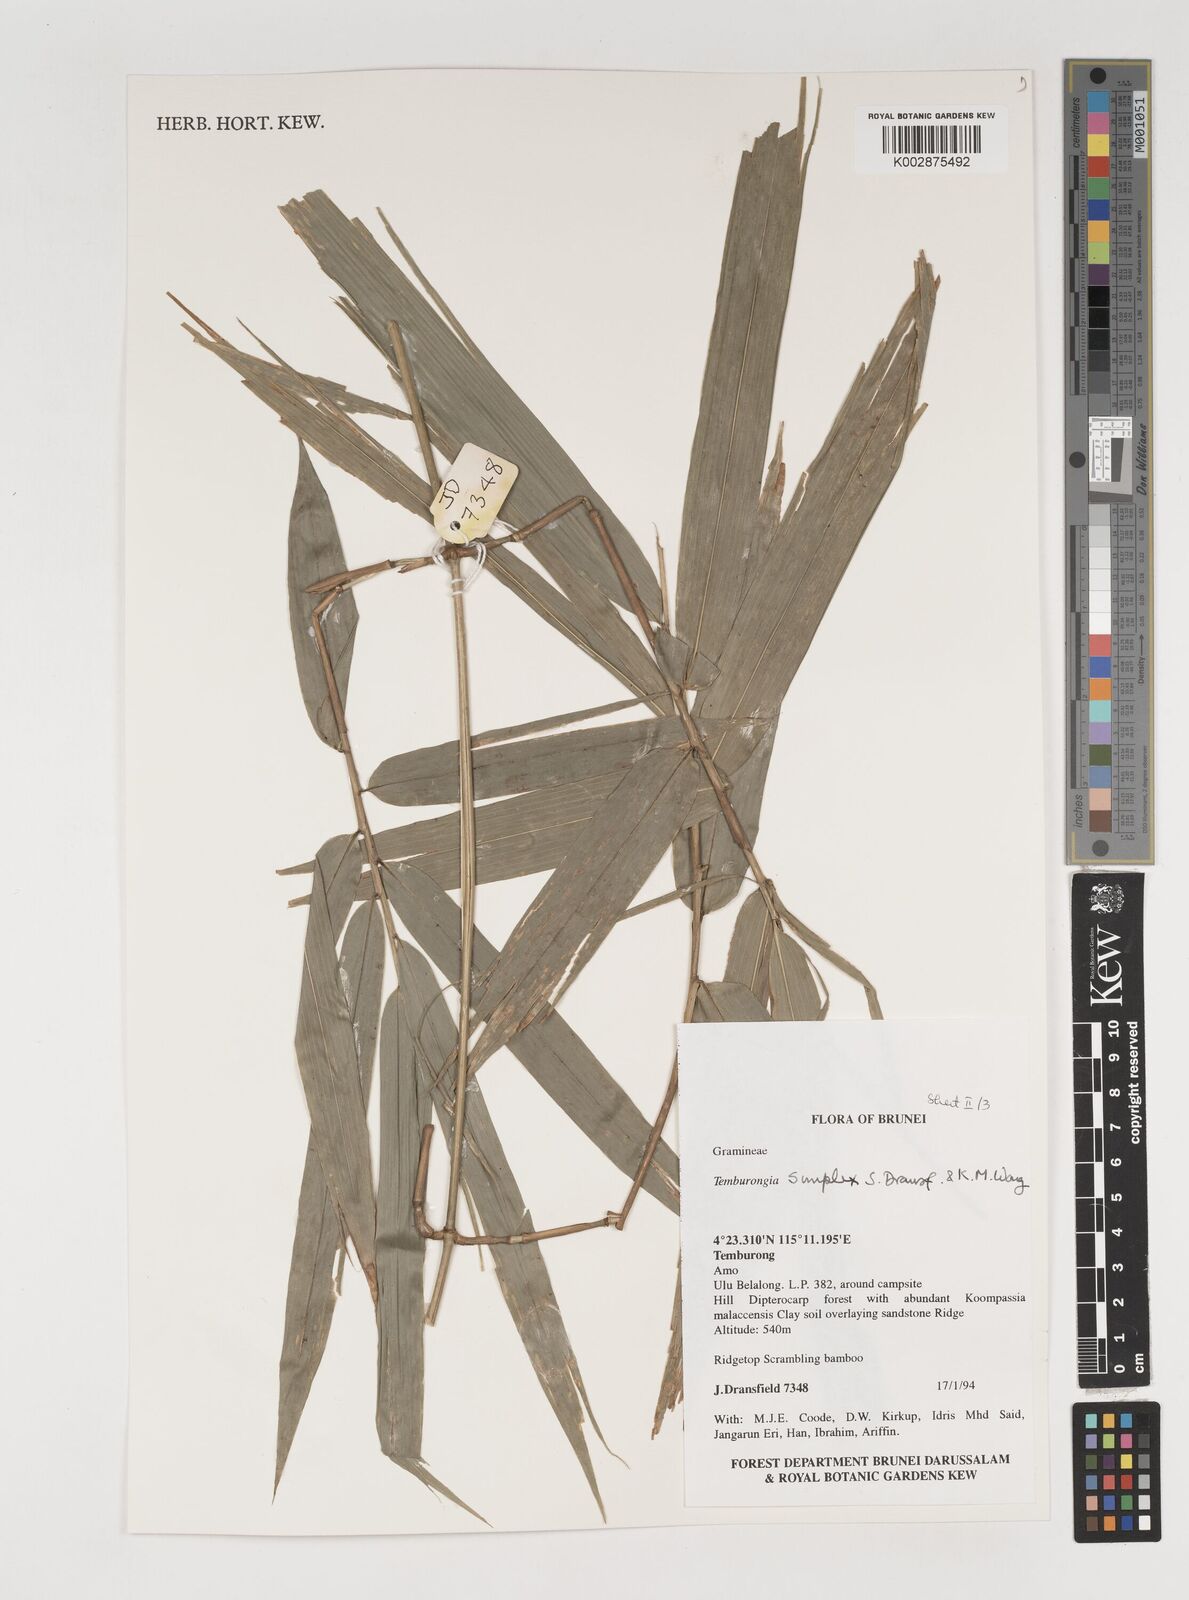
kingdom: Plantae
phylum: Tracheophyta
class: Liliopsida
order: Poales
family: Poaceae
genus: Temburongia
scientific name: Temburongia
